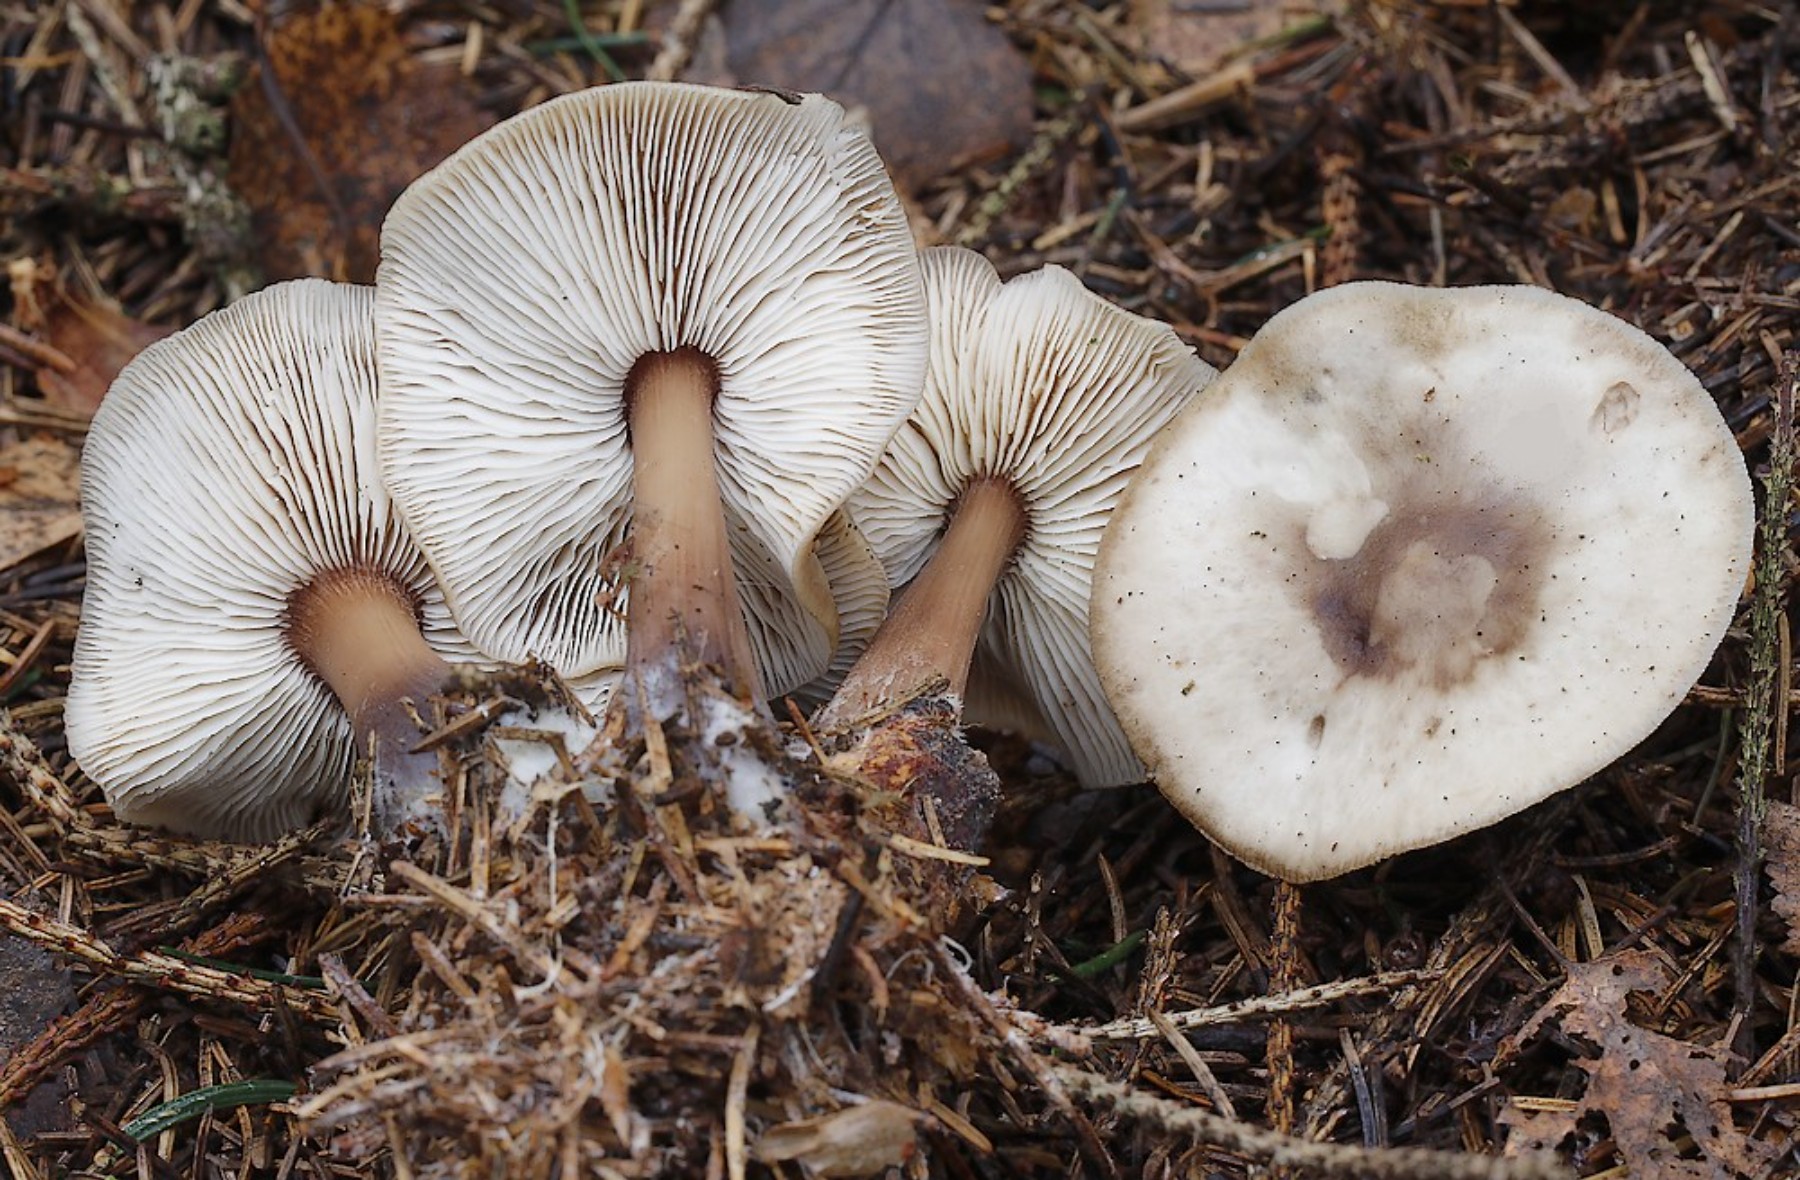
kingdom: Fungi
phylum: Basidiomycota
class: Agaricomycetes
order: Agaricales
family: Omphalotaceae
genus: Rhodocollybia
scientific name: Rhodocollybia asema
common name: horngrå fladhat
